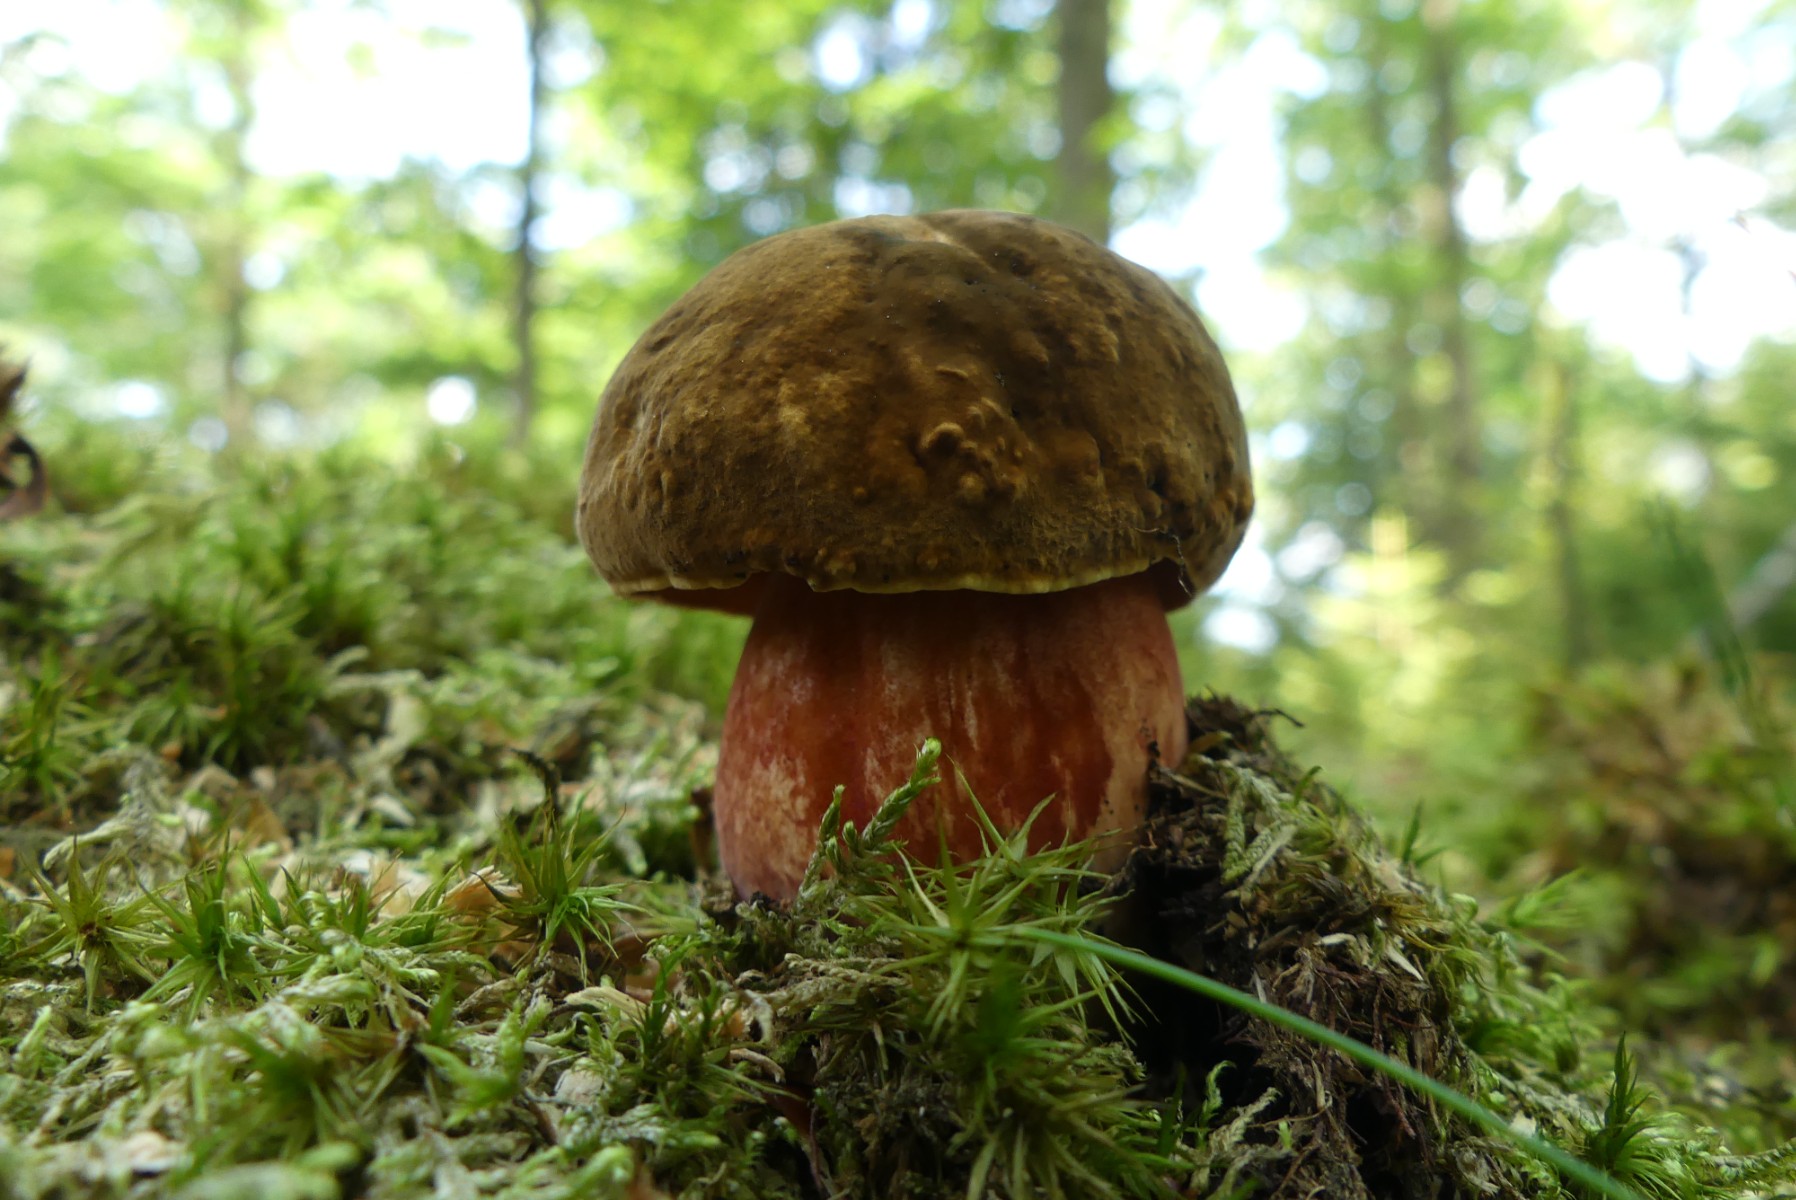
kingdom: Fungi
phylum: Basidiomycota
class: Agaricomycetes
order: Boletales
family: Boletaceae
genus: Neoboletus
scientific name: Neoboletus erythropus
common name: punktstokket indigorørhat
